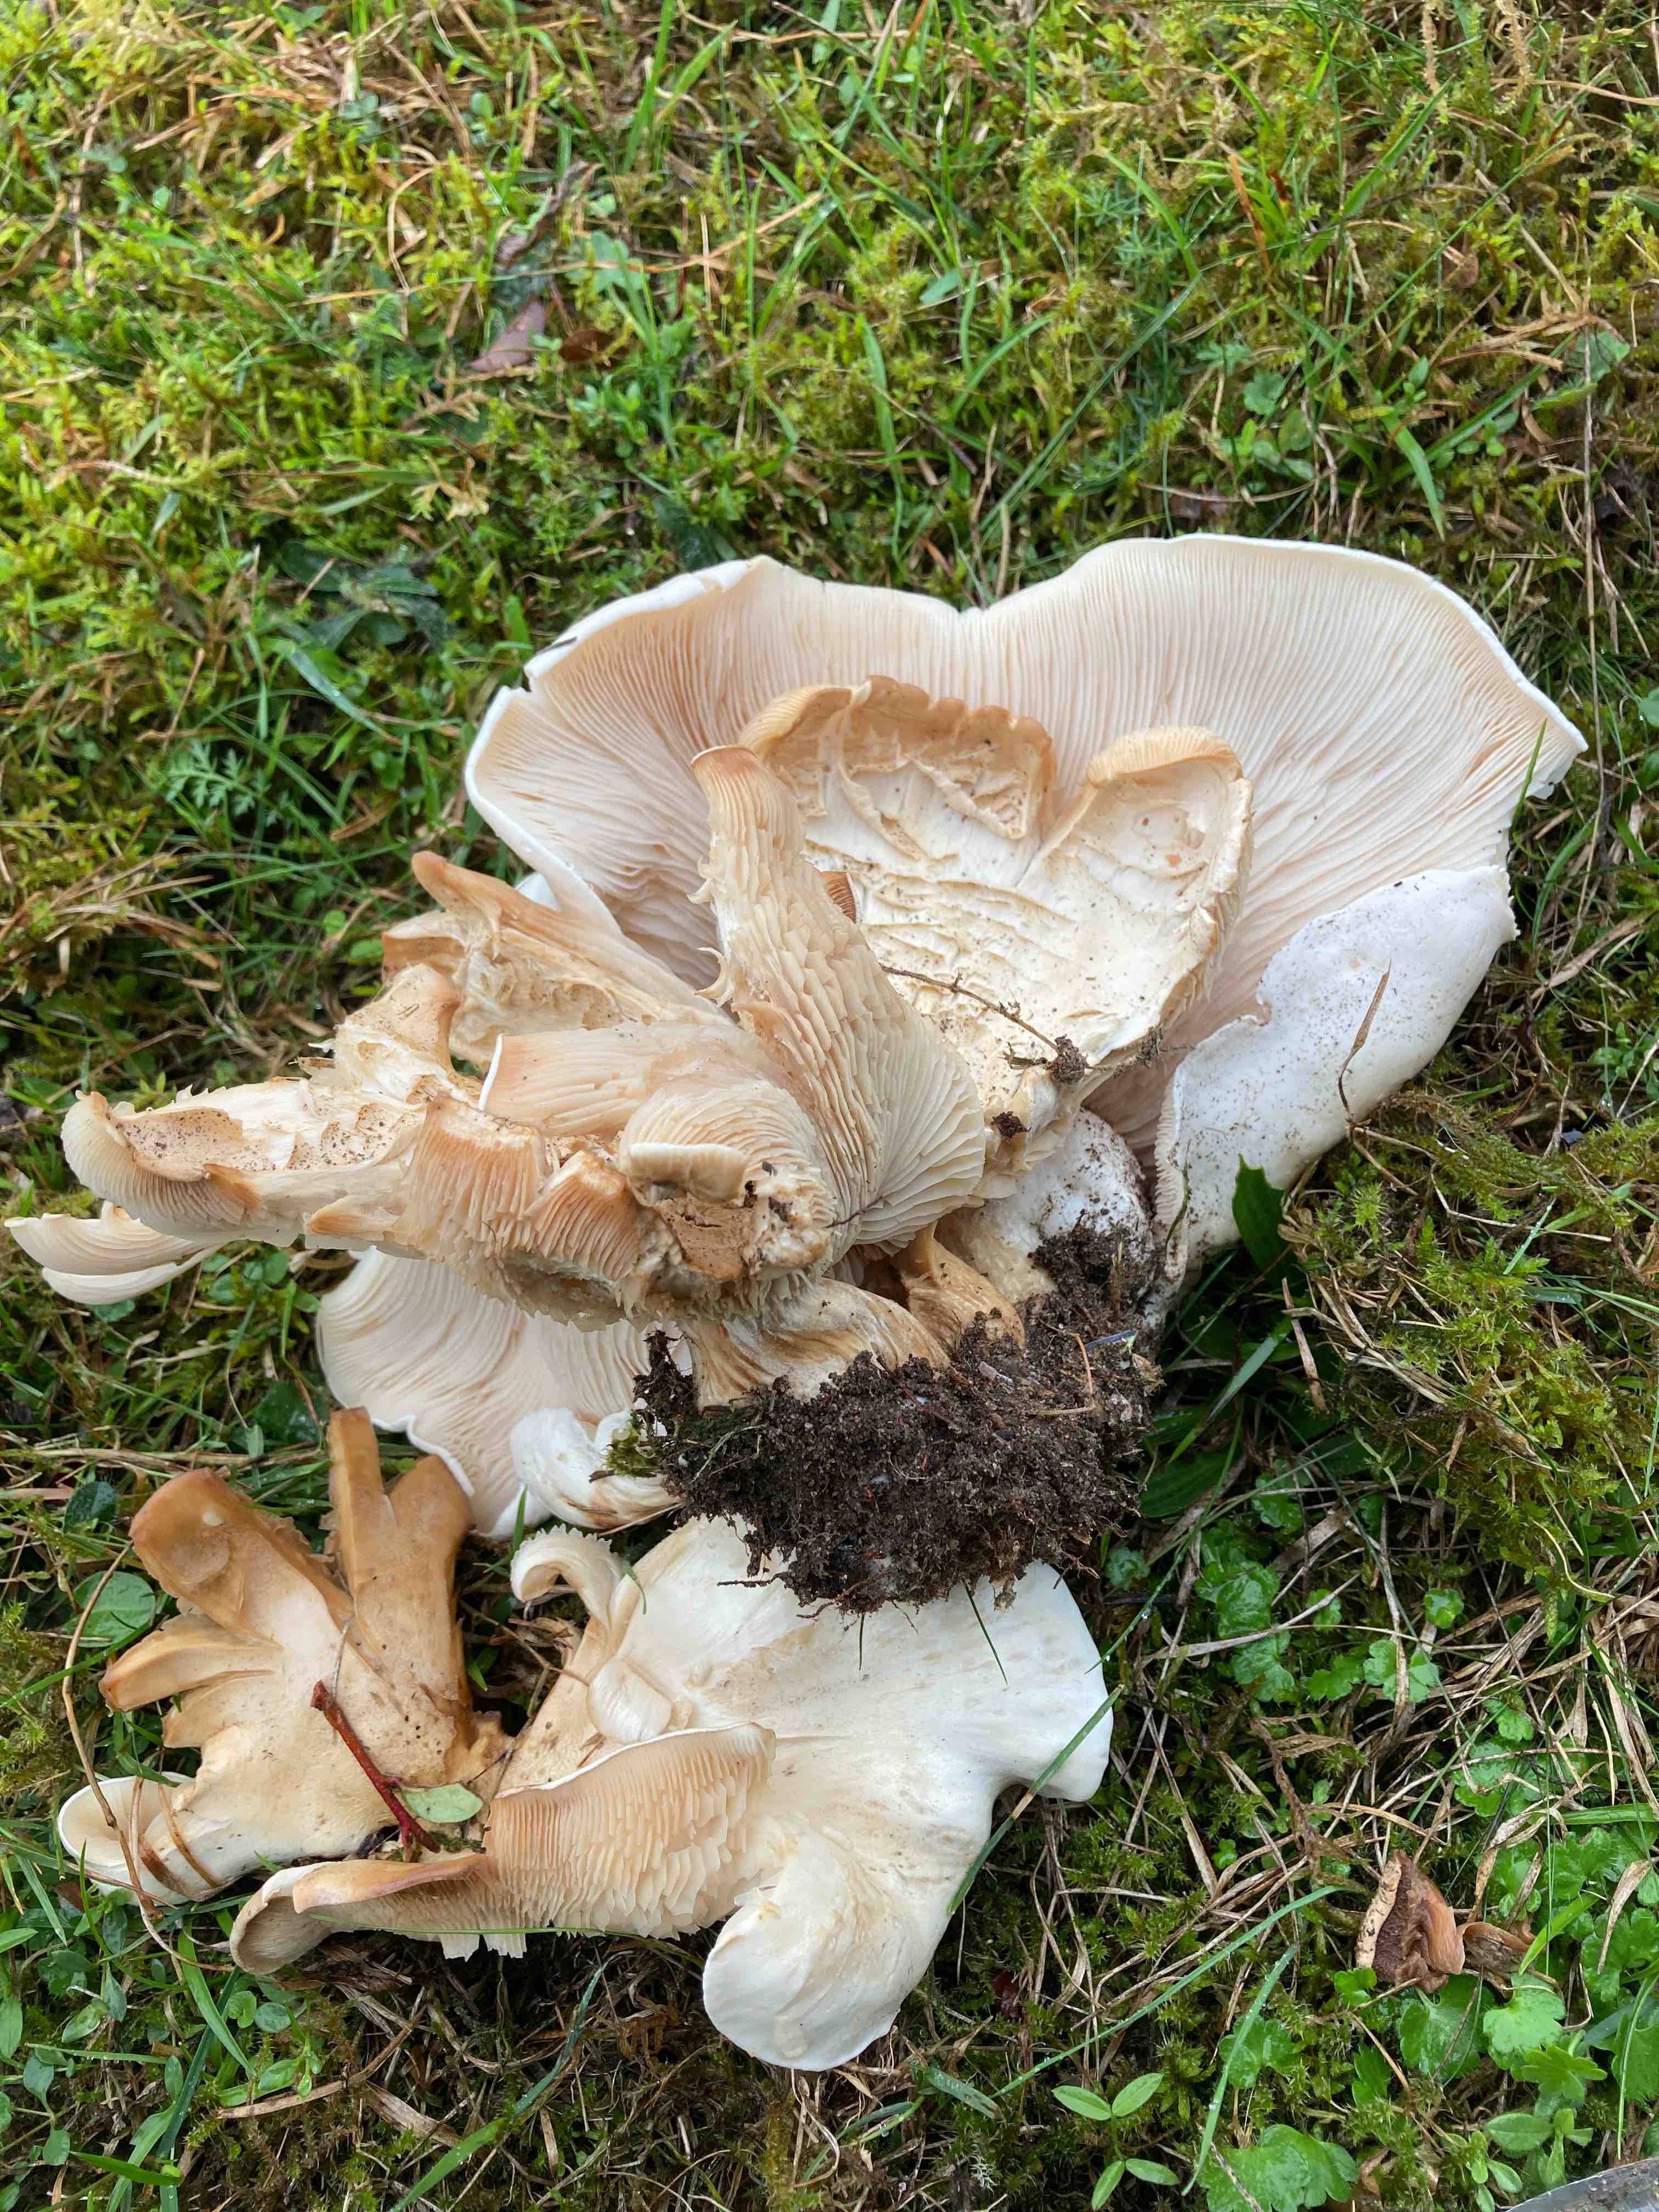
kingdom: Fungi
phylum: Basidiomycota
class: Agaricomycetes
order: Agaricales
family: Tricholomataceae
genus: Aspropaxillus
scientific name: Aspropaxillus giganteus
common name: kæmpe-tragtridderhat
